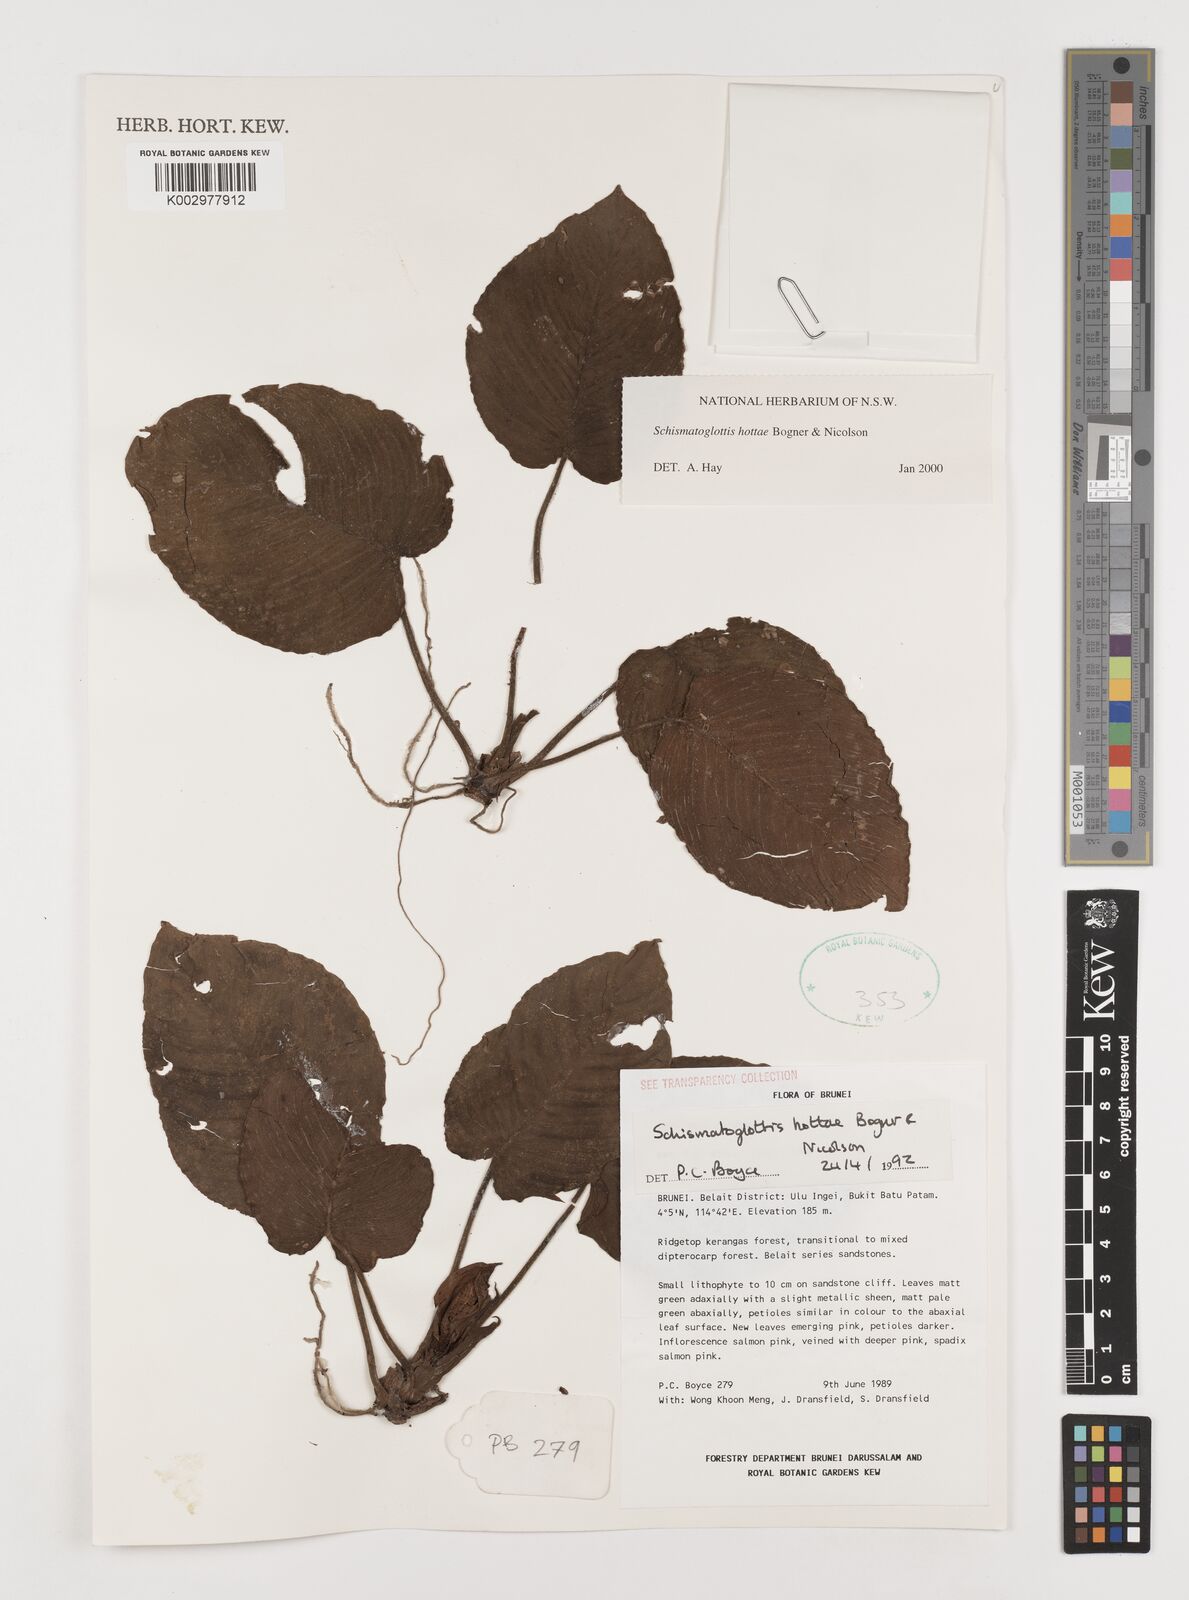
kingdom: Plantae
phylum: Tracheophyta
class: Liliopsida
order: Alismatales
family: Araceae
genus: Schismatoglottis
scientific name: Schismatoglottis hottae
